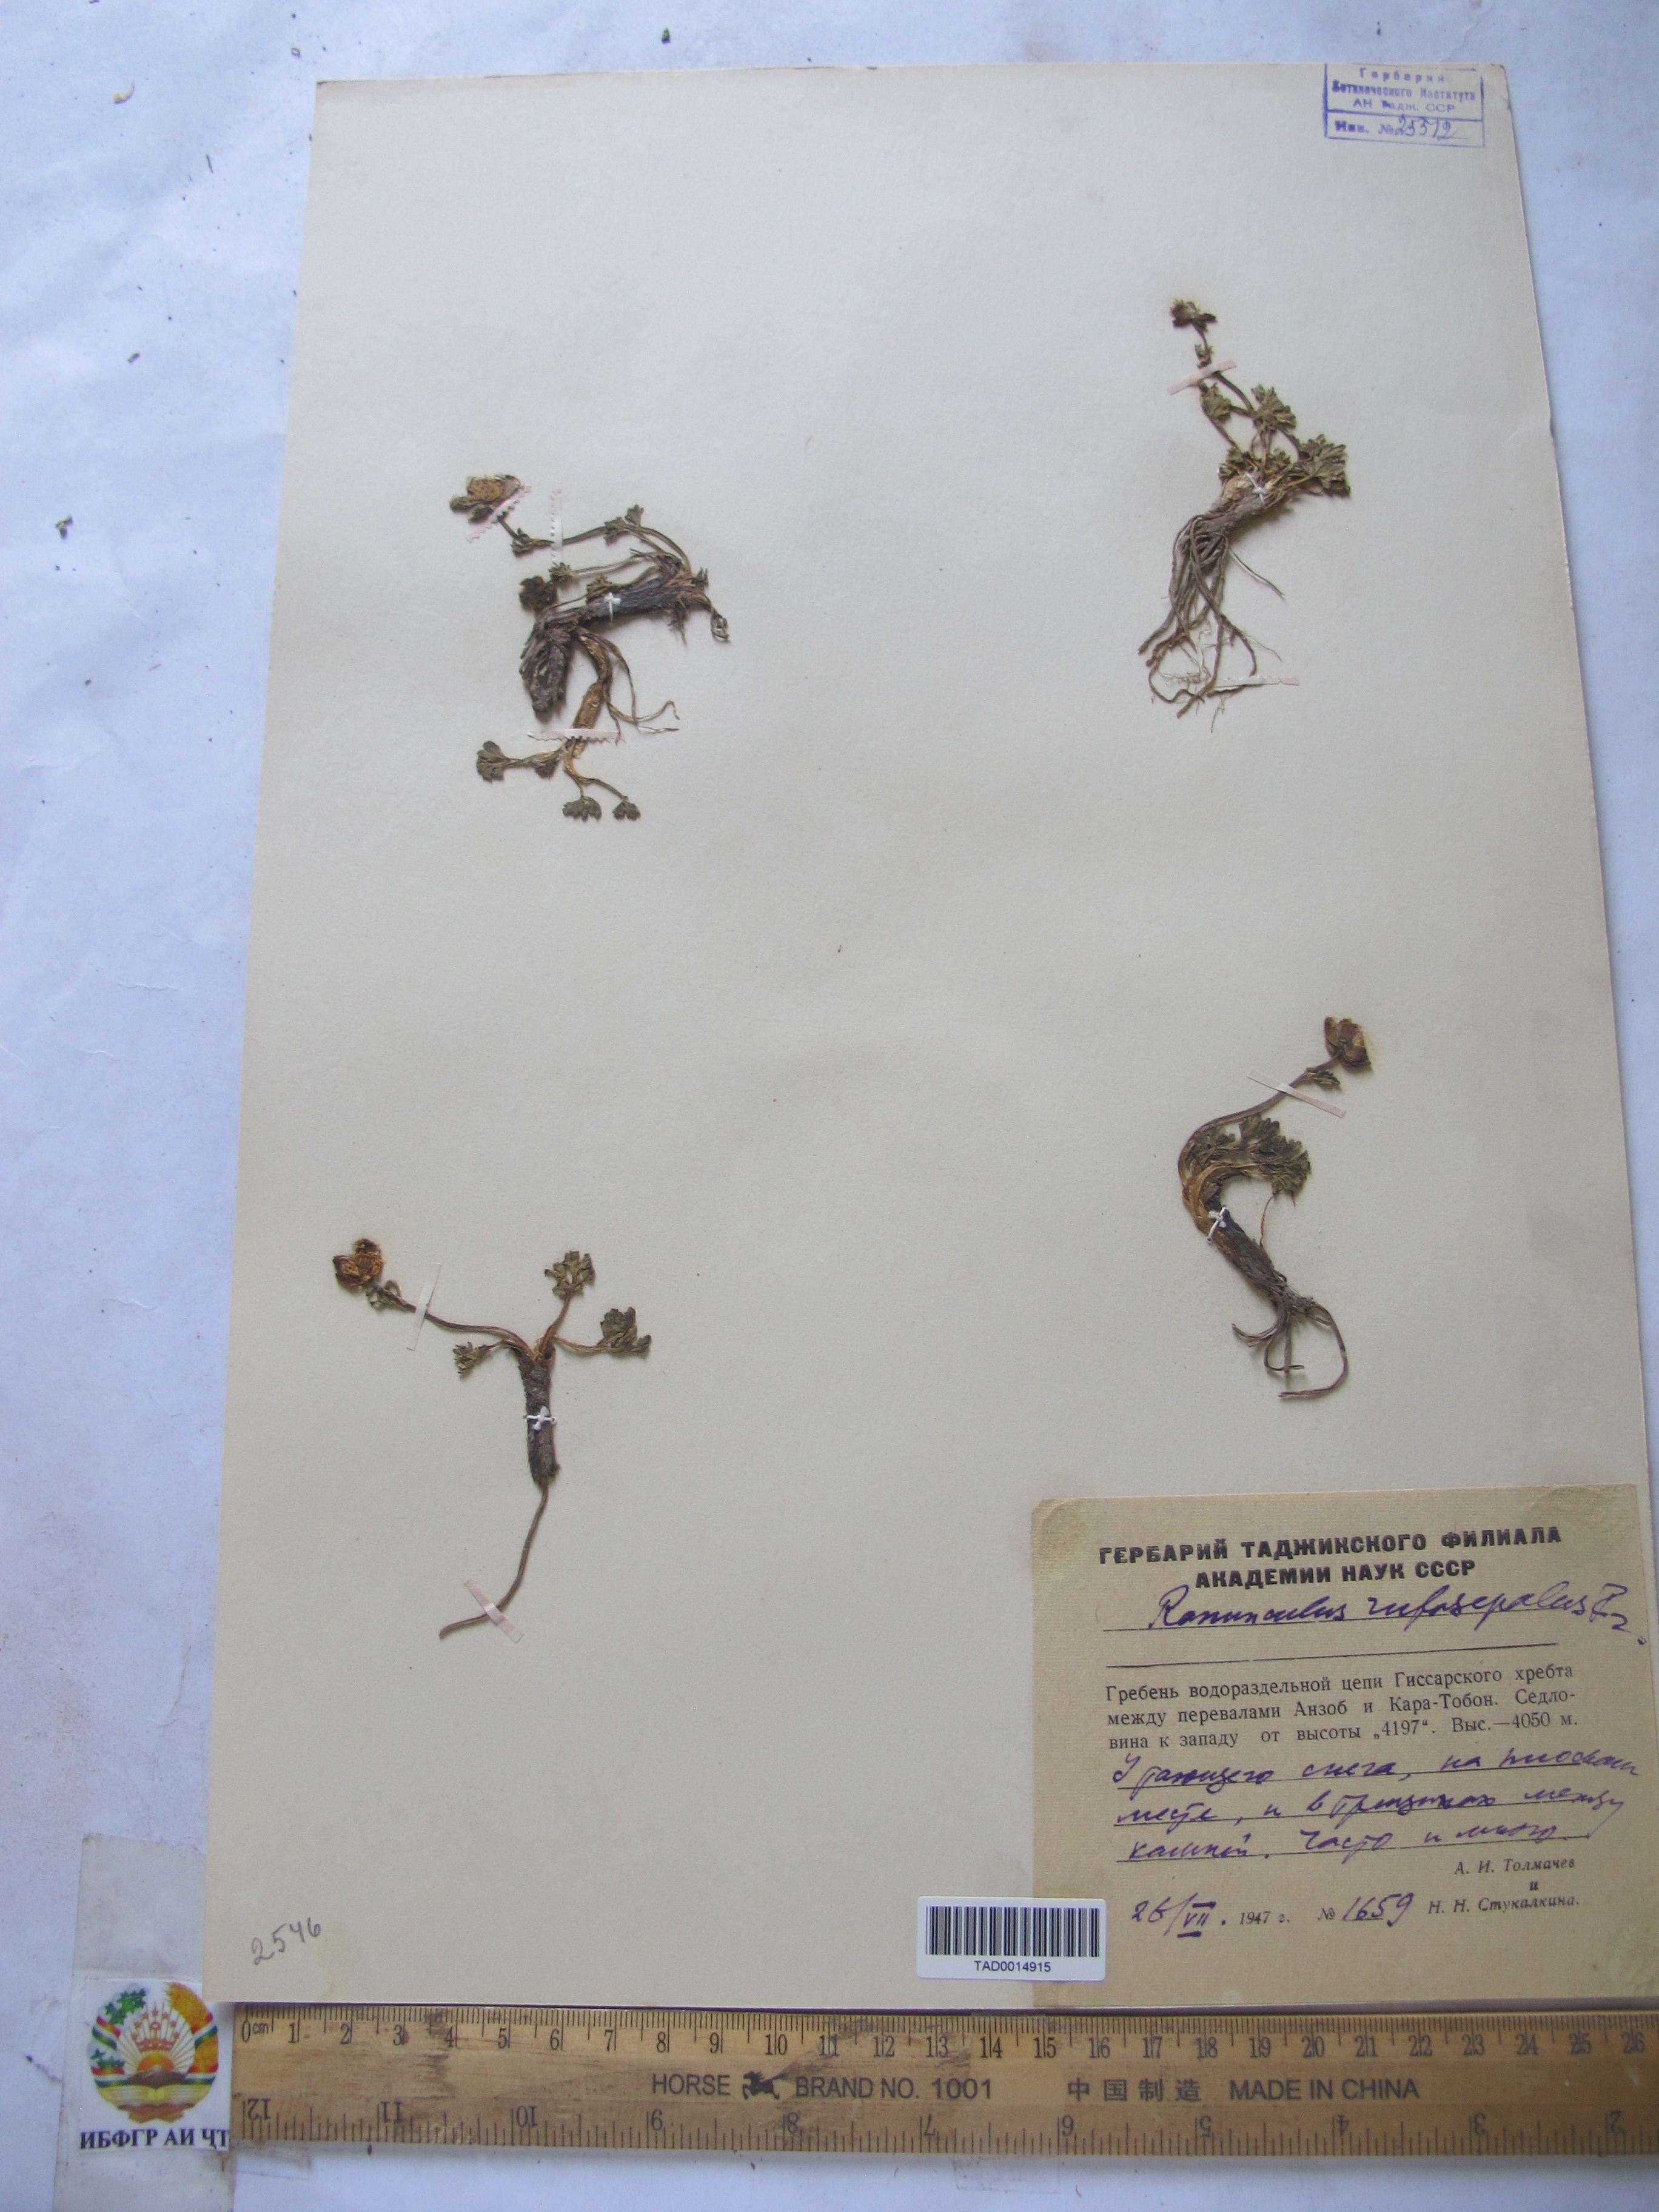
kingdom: Plantae
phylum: Tracheophyta
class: Magnoliopsida
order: Ranunculales
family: Ranunculaceae
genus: Ranunculus
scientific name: Ranunculus rufosepalus
